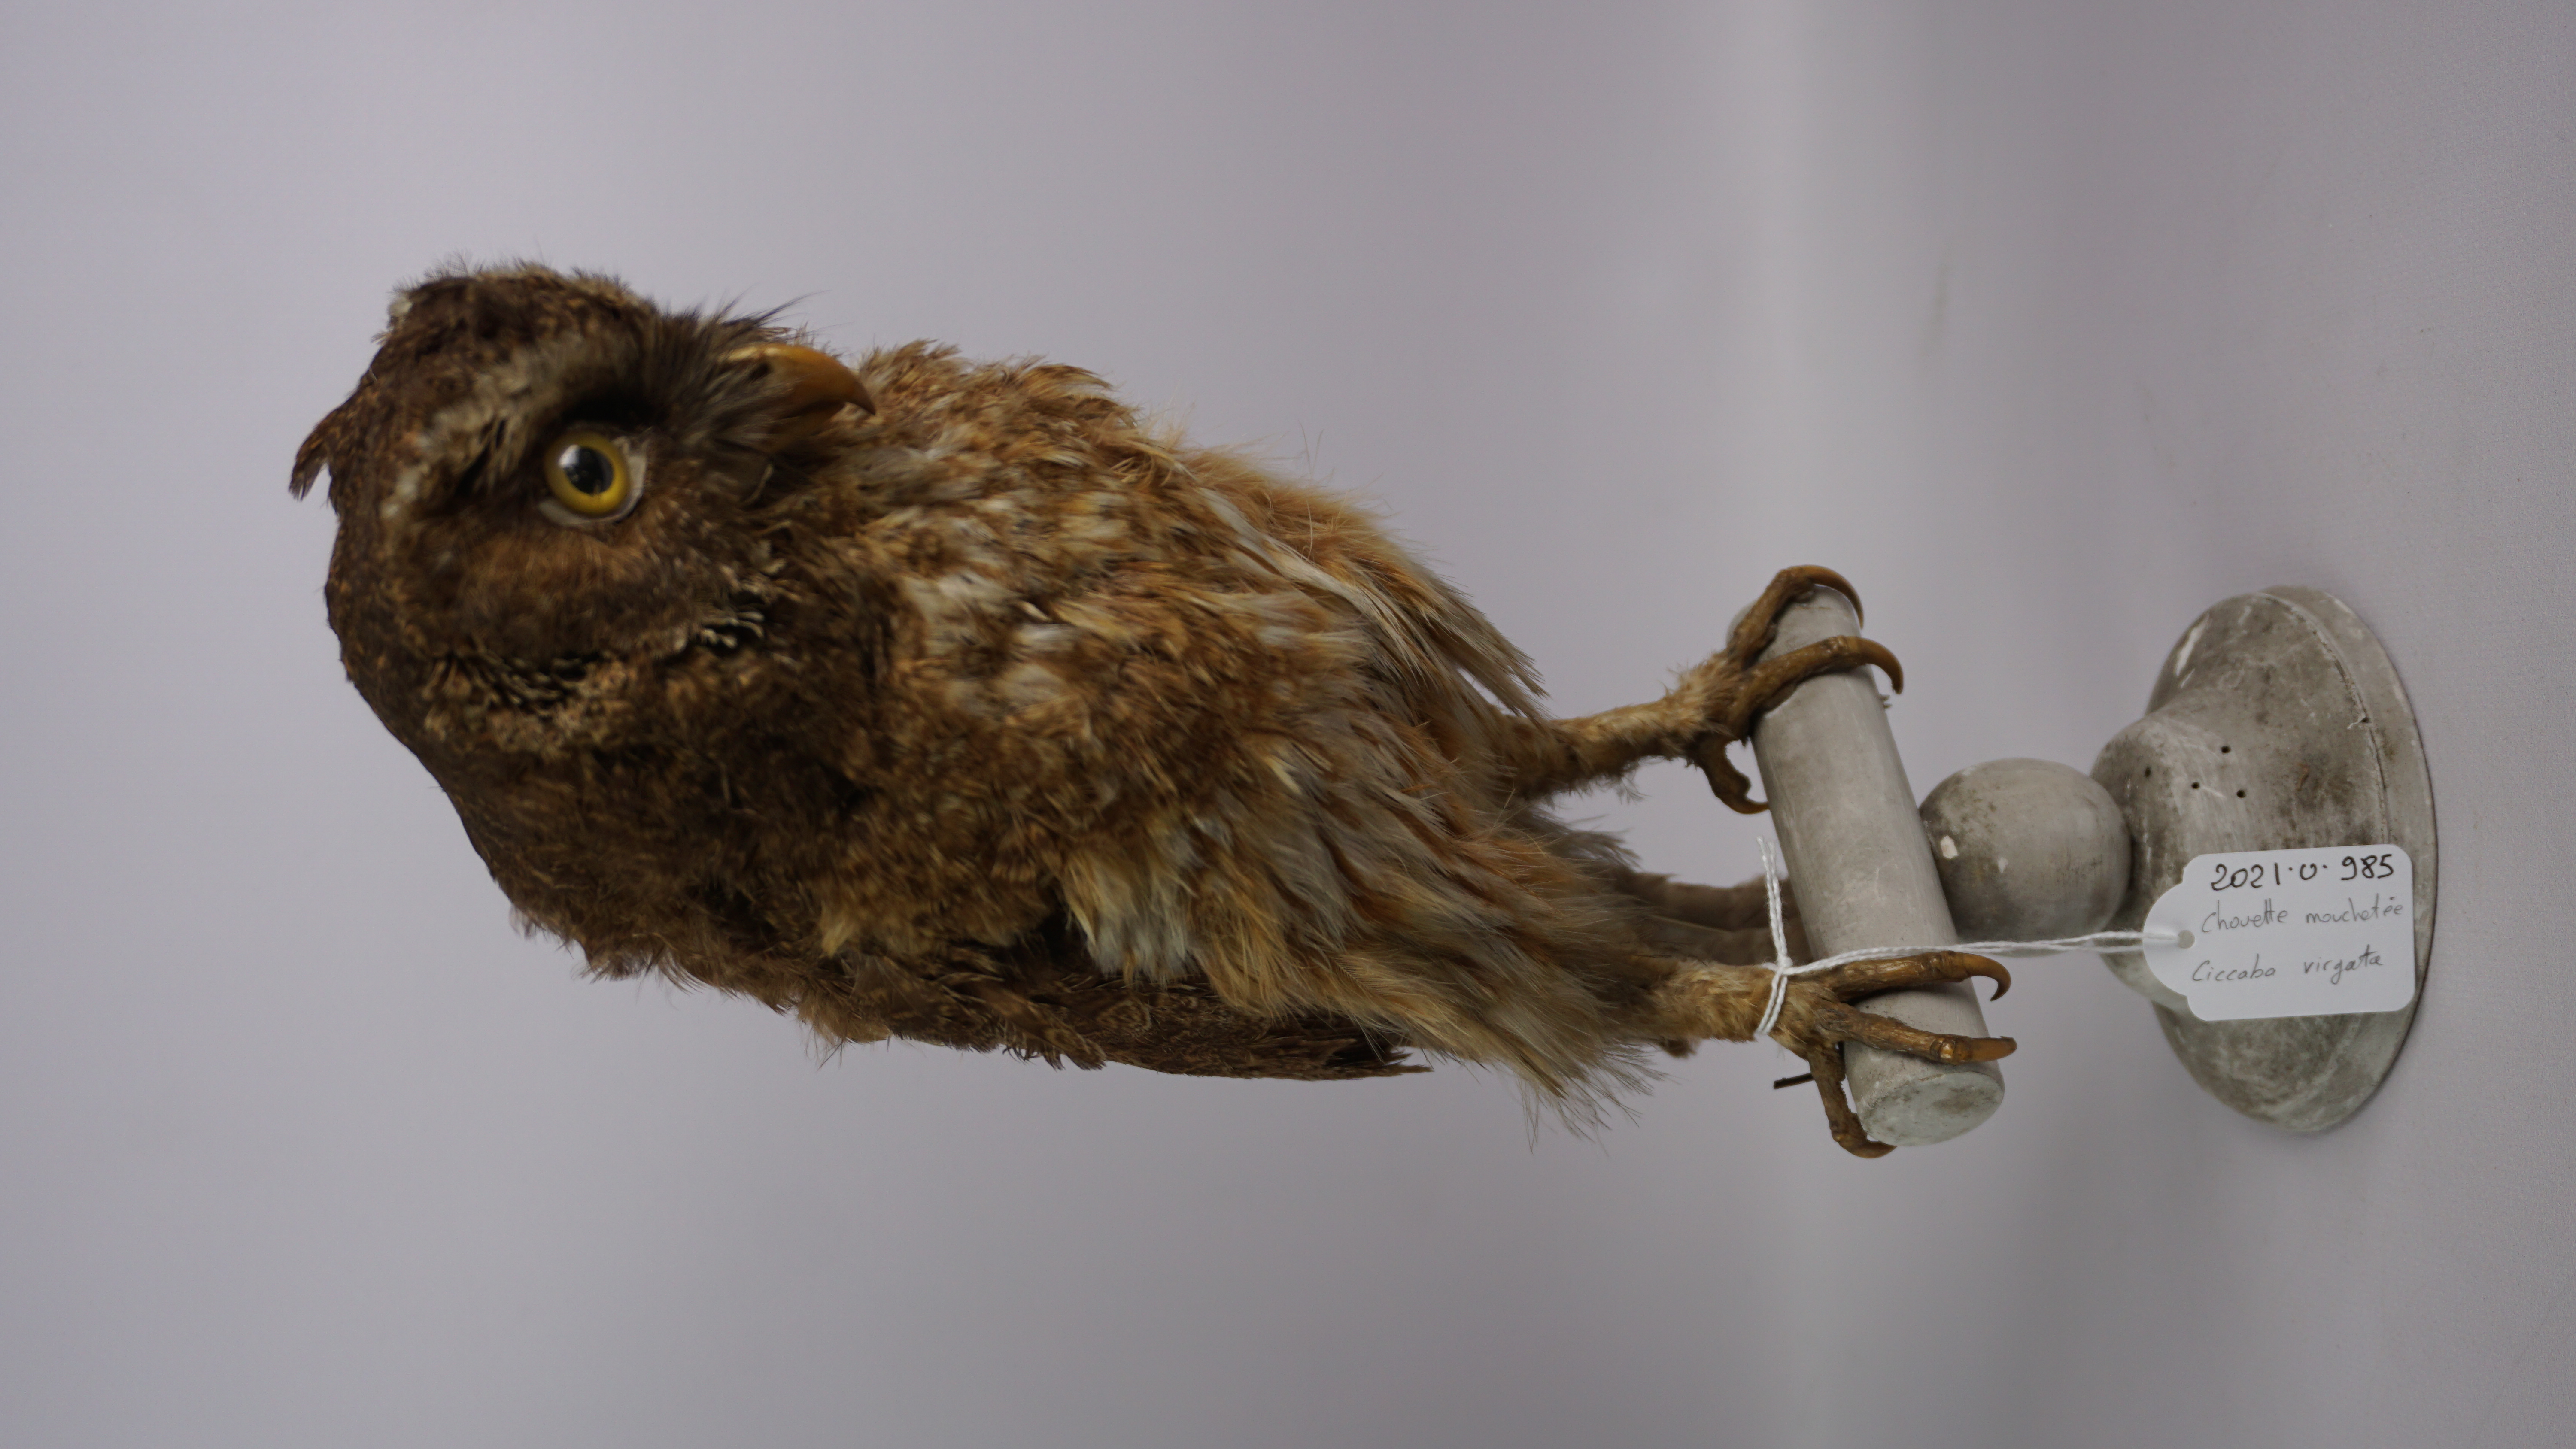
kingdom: Animalia
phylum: Chordata
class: Aves
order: Strigiformes
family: Strigidae
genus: Strix
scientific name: Strix virgata
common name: Mottled owl
